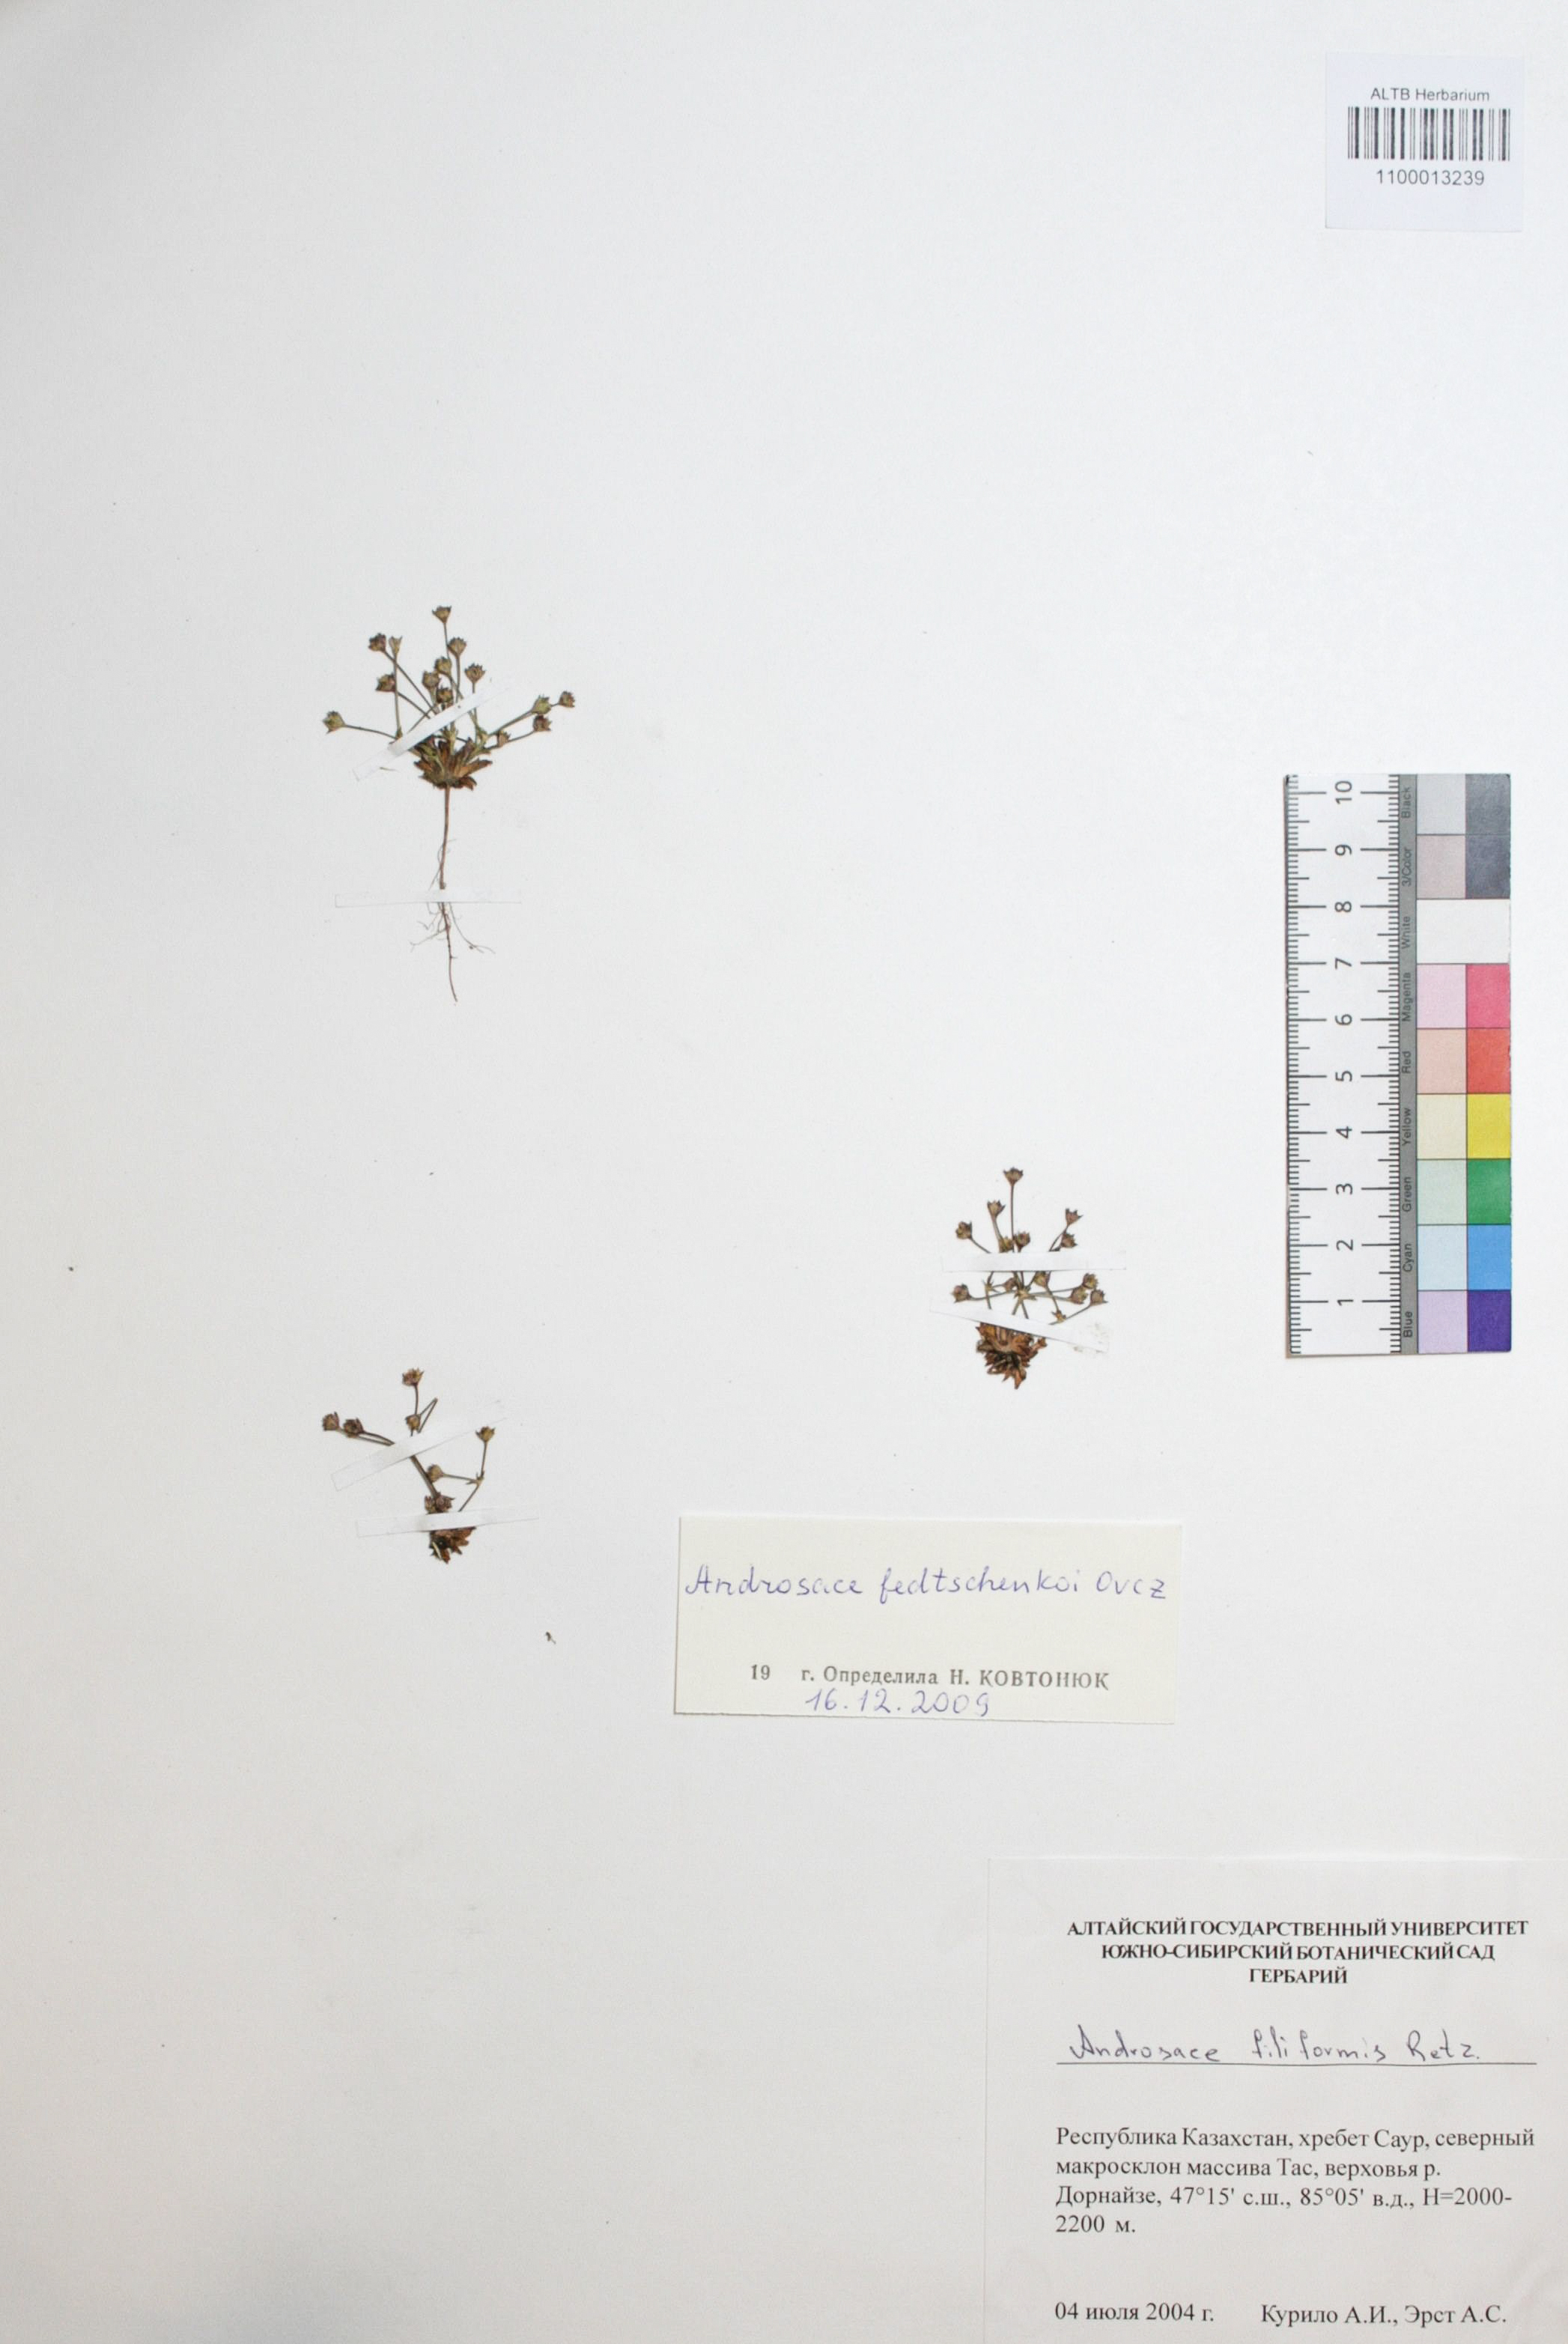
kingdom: Plantae
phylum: Tracheophyta
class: Magnoliopsida
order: Ericales
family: Primulaceae
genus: Androsace
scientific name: Androsace fedtschenkoi
